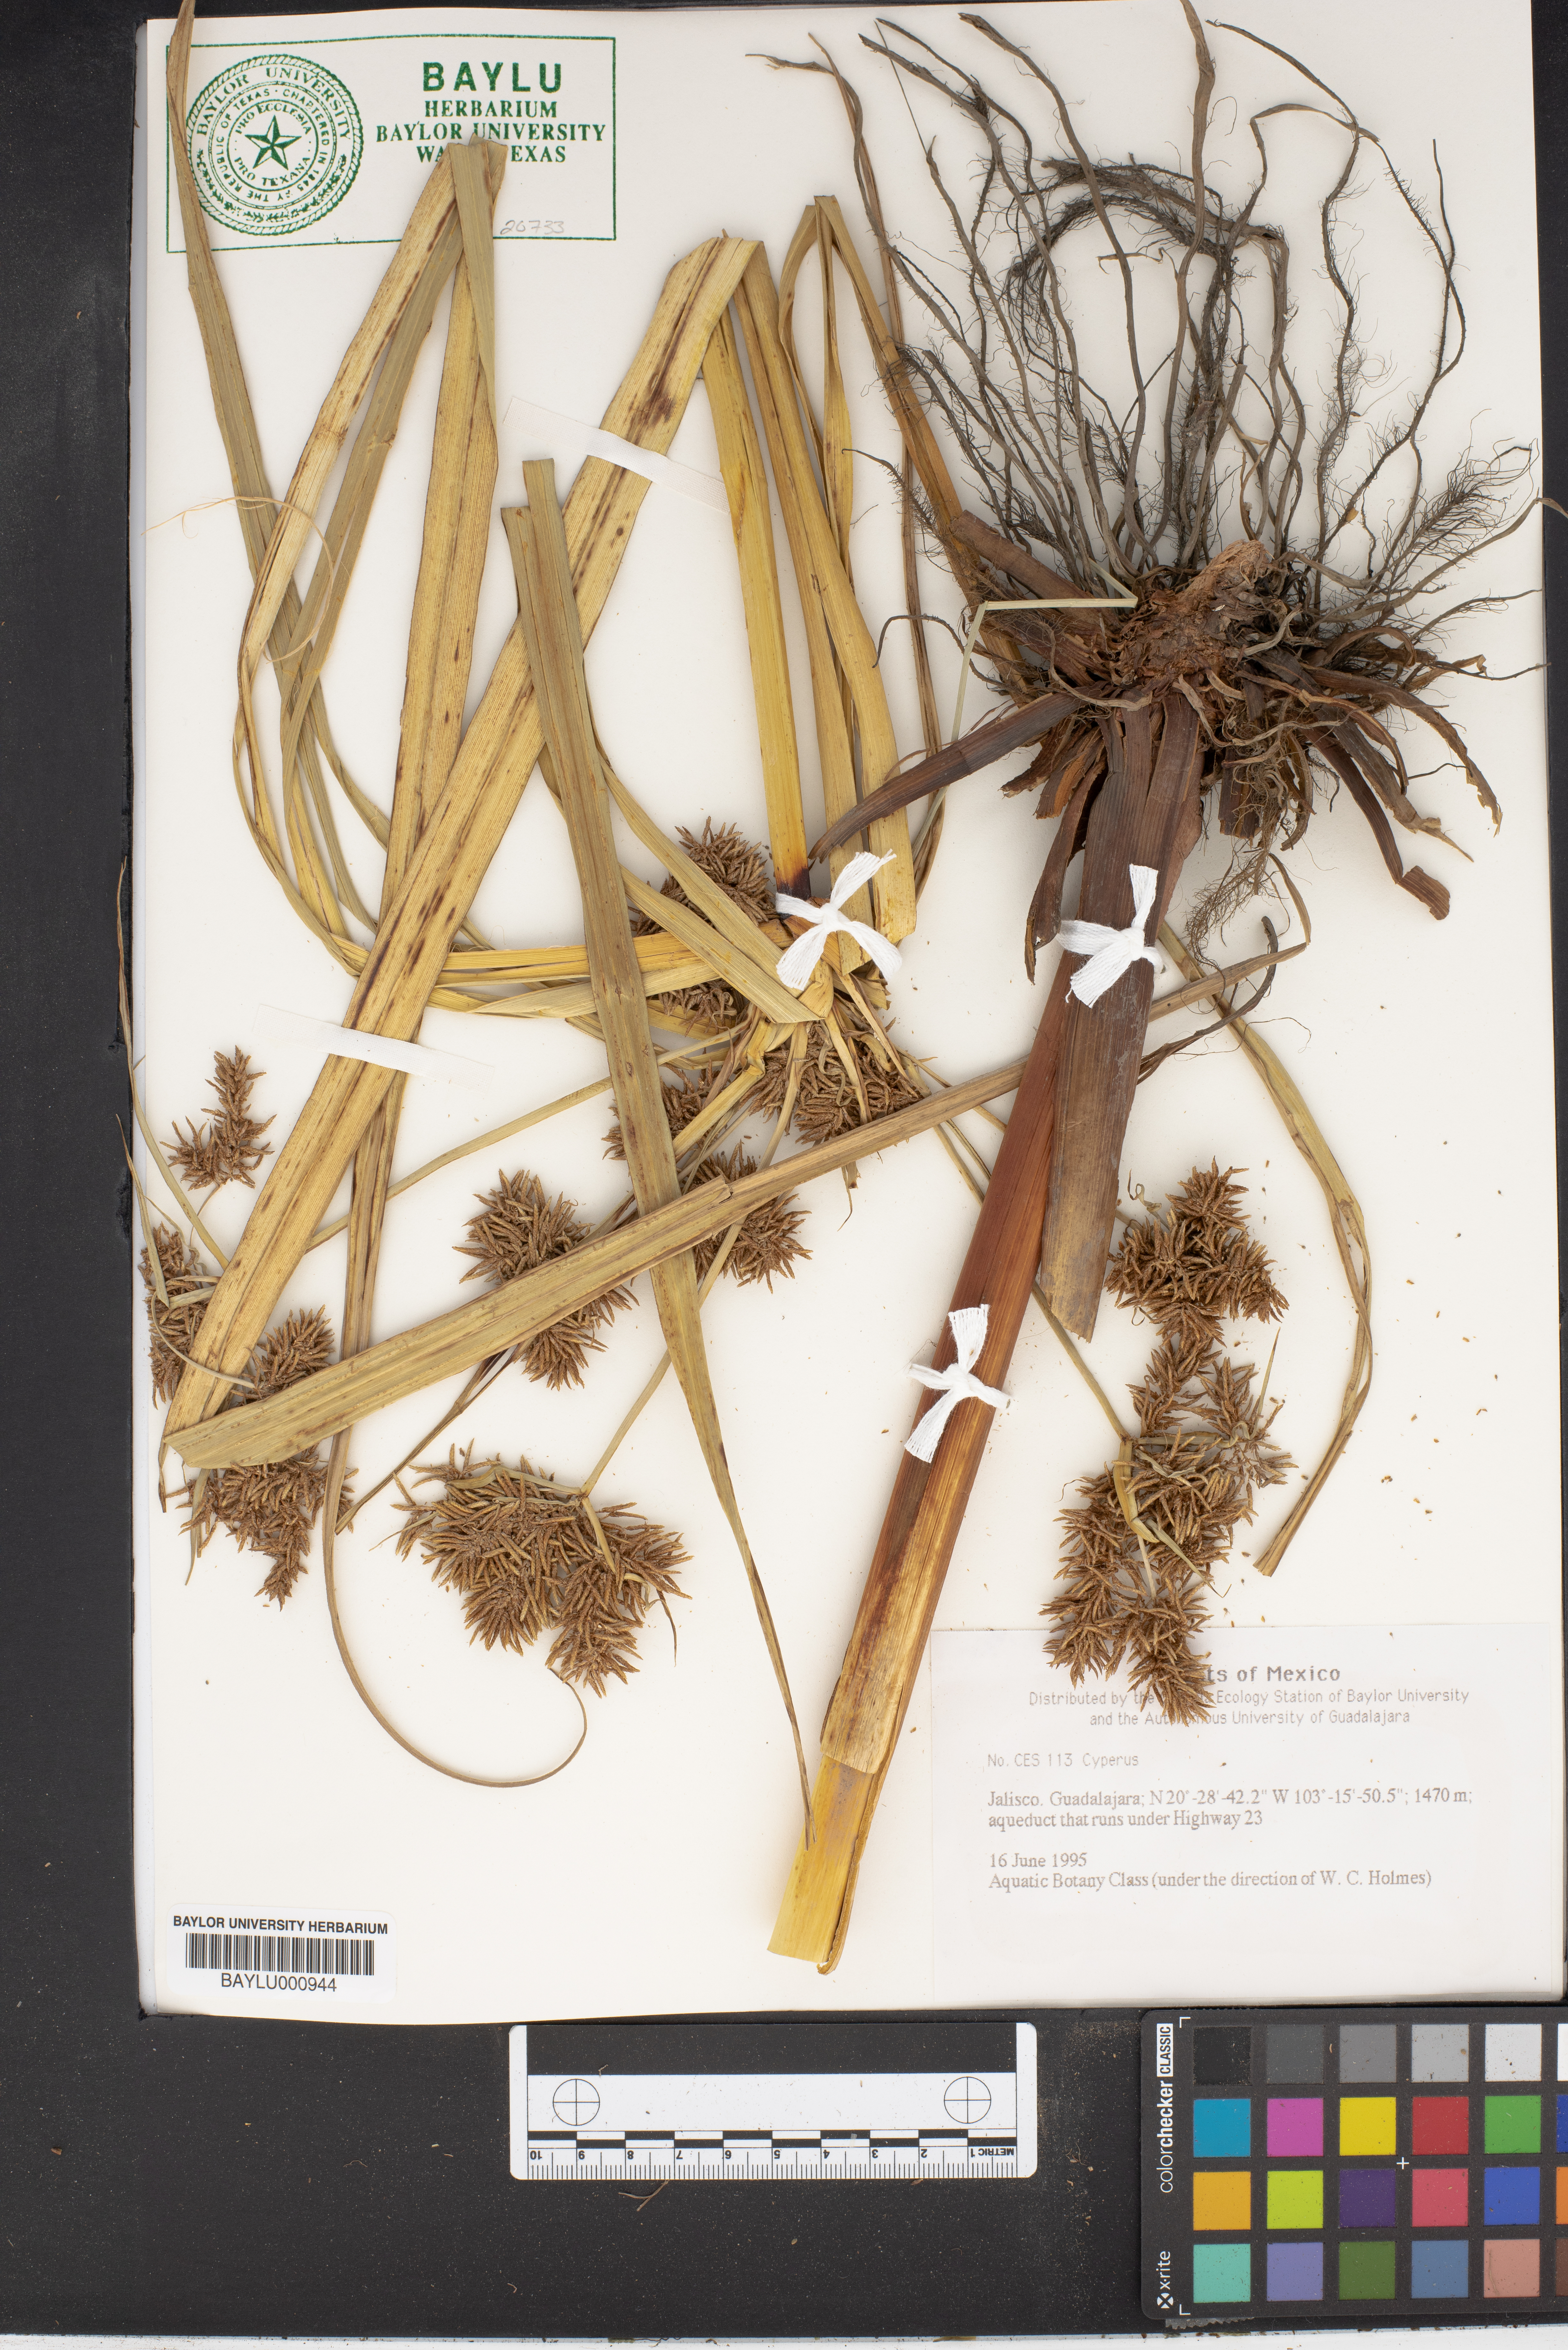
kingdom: Plantae
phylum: Tracheophyta
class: Liliopsida
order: Poales
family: Cyperaceae
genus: Cyperus
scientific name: Cyperus
